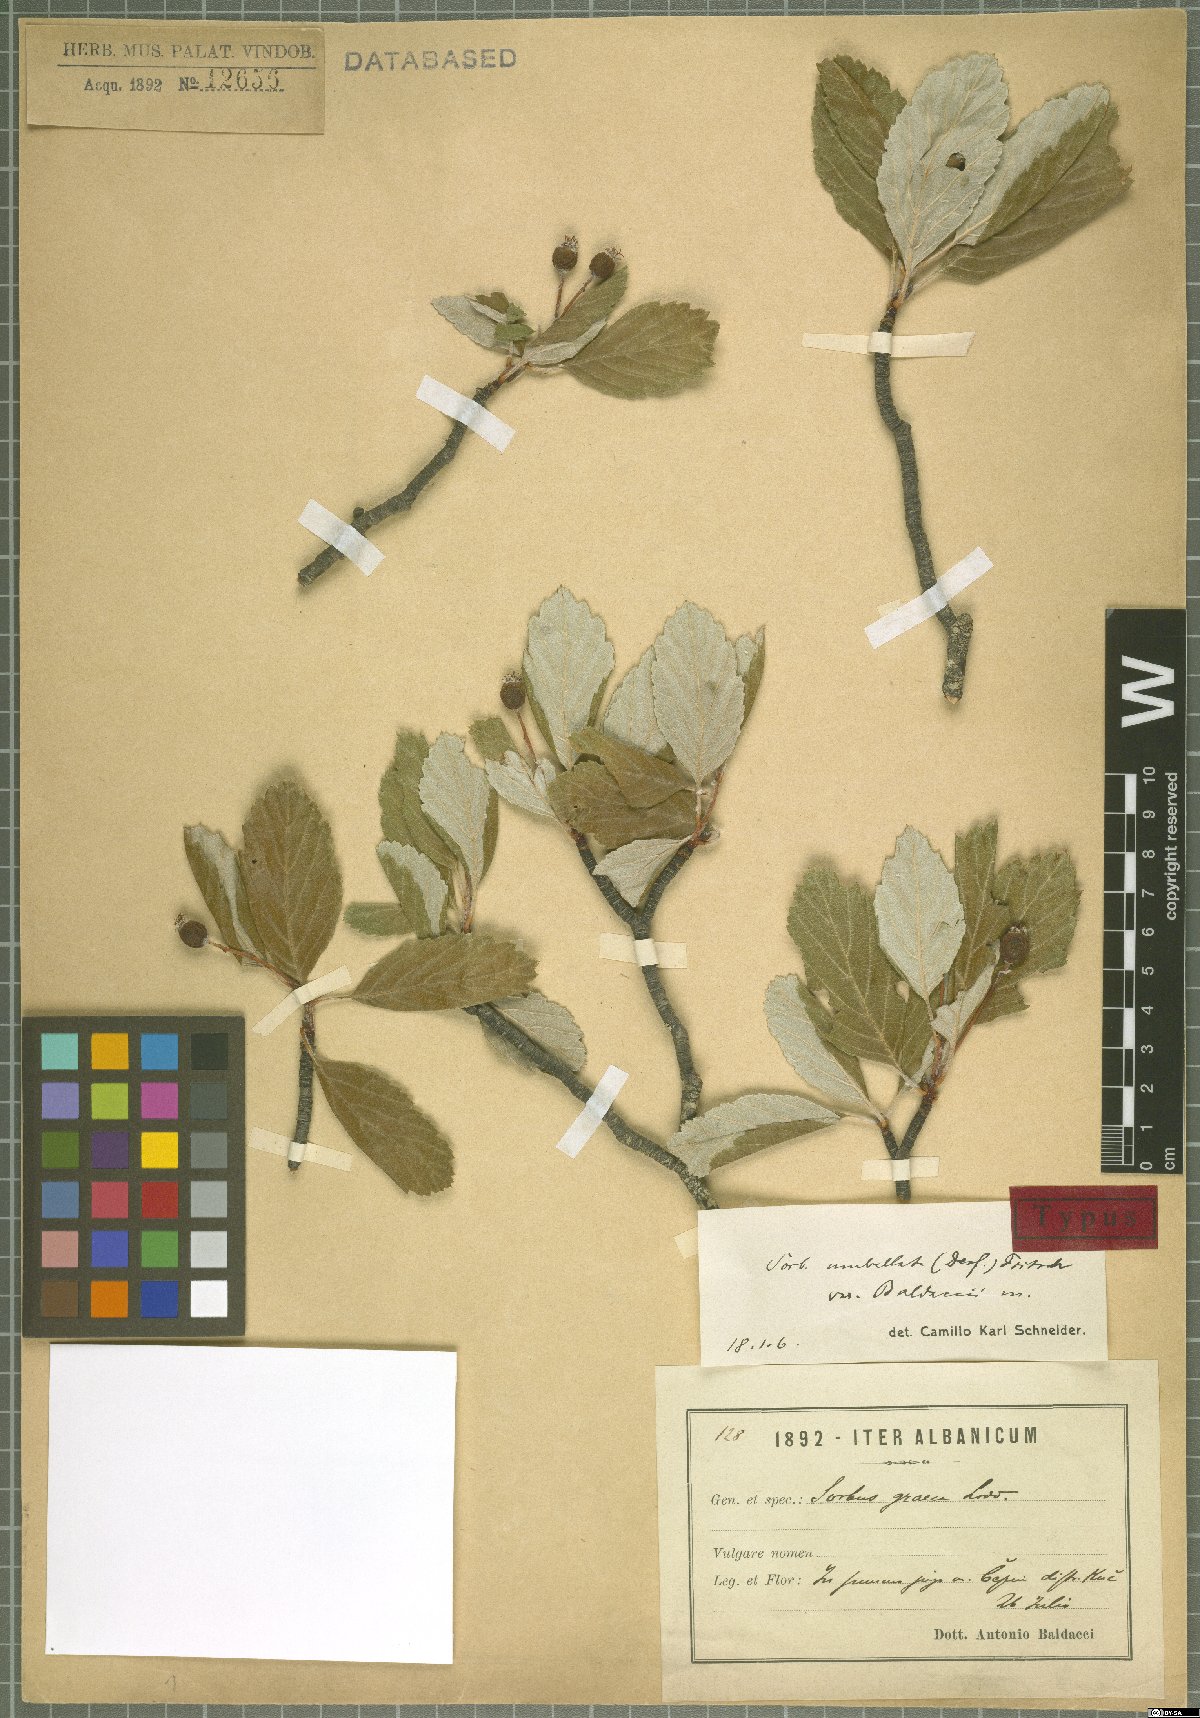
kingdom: Plantae
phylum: Tracheophyta
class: Magnoliopsida
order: Rosales
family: Rosaceae
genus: Aria
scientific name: Aria baldaccii
